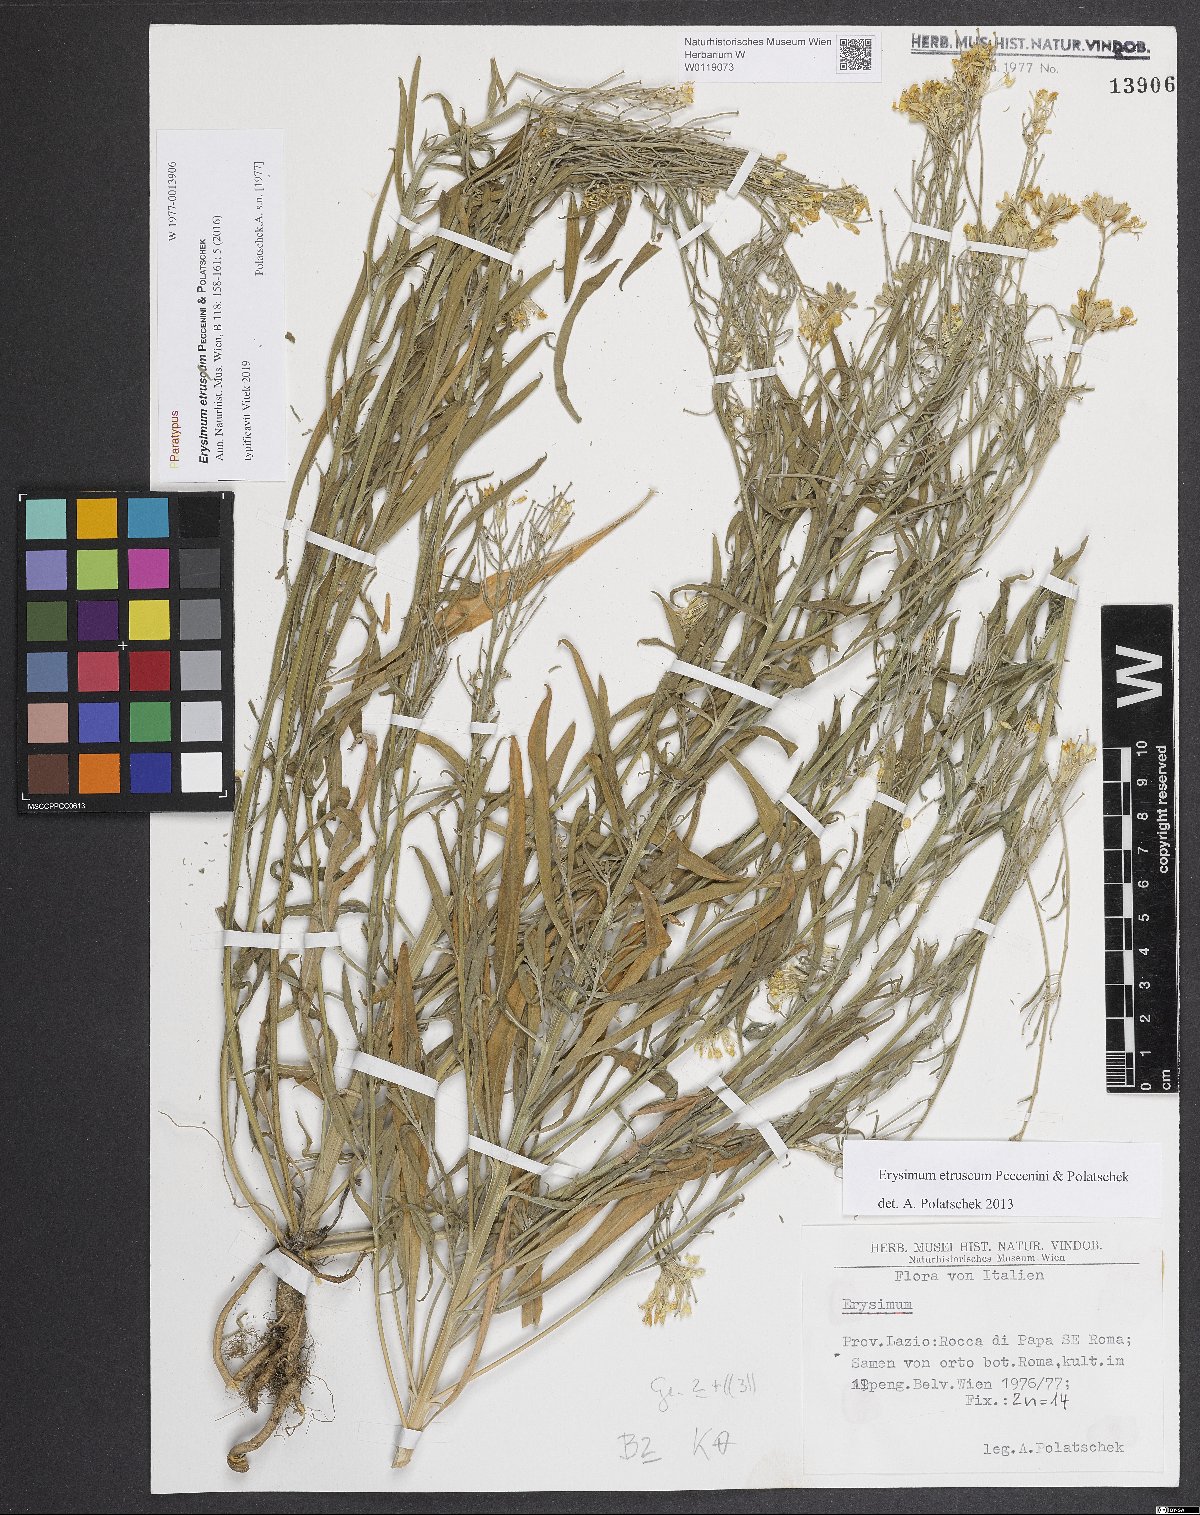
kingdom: Plantae
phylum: Tracheophyta
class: Magnoliopsida
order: Brassicales
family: Brassicaceae
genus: Erysimum
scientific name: Erysimum pseudorhaeticum
